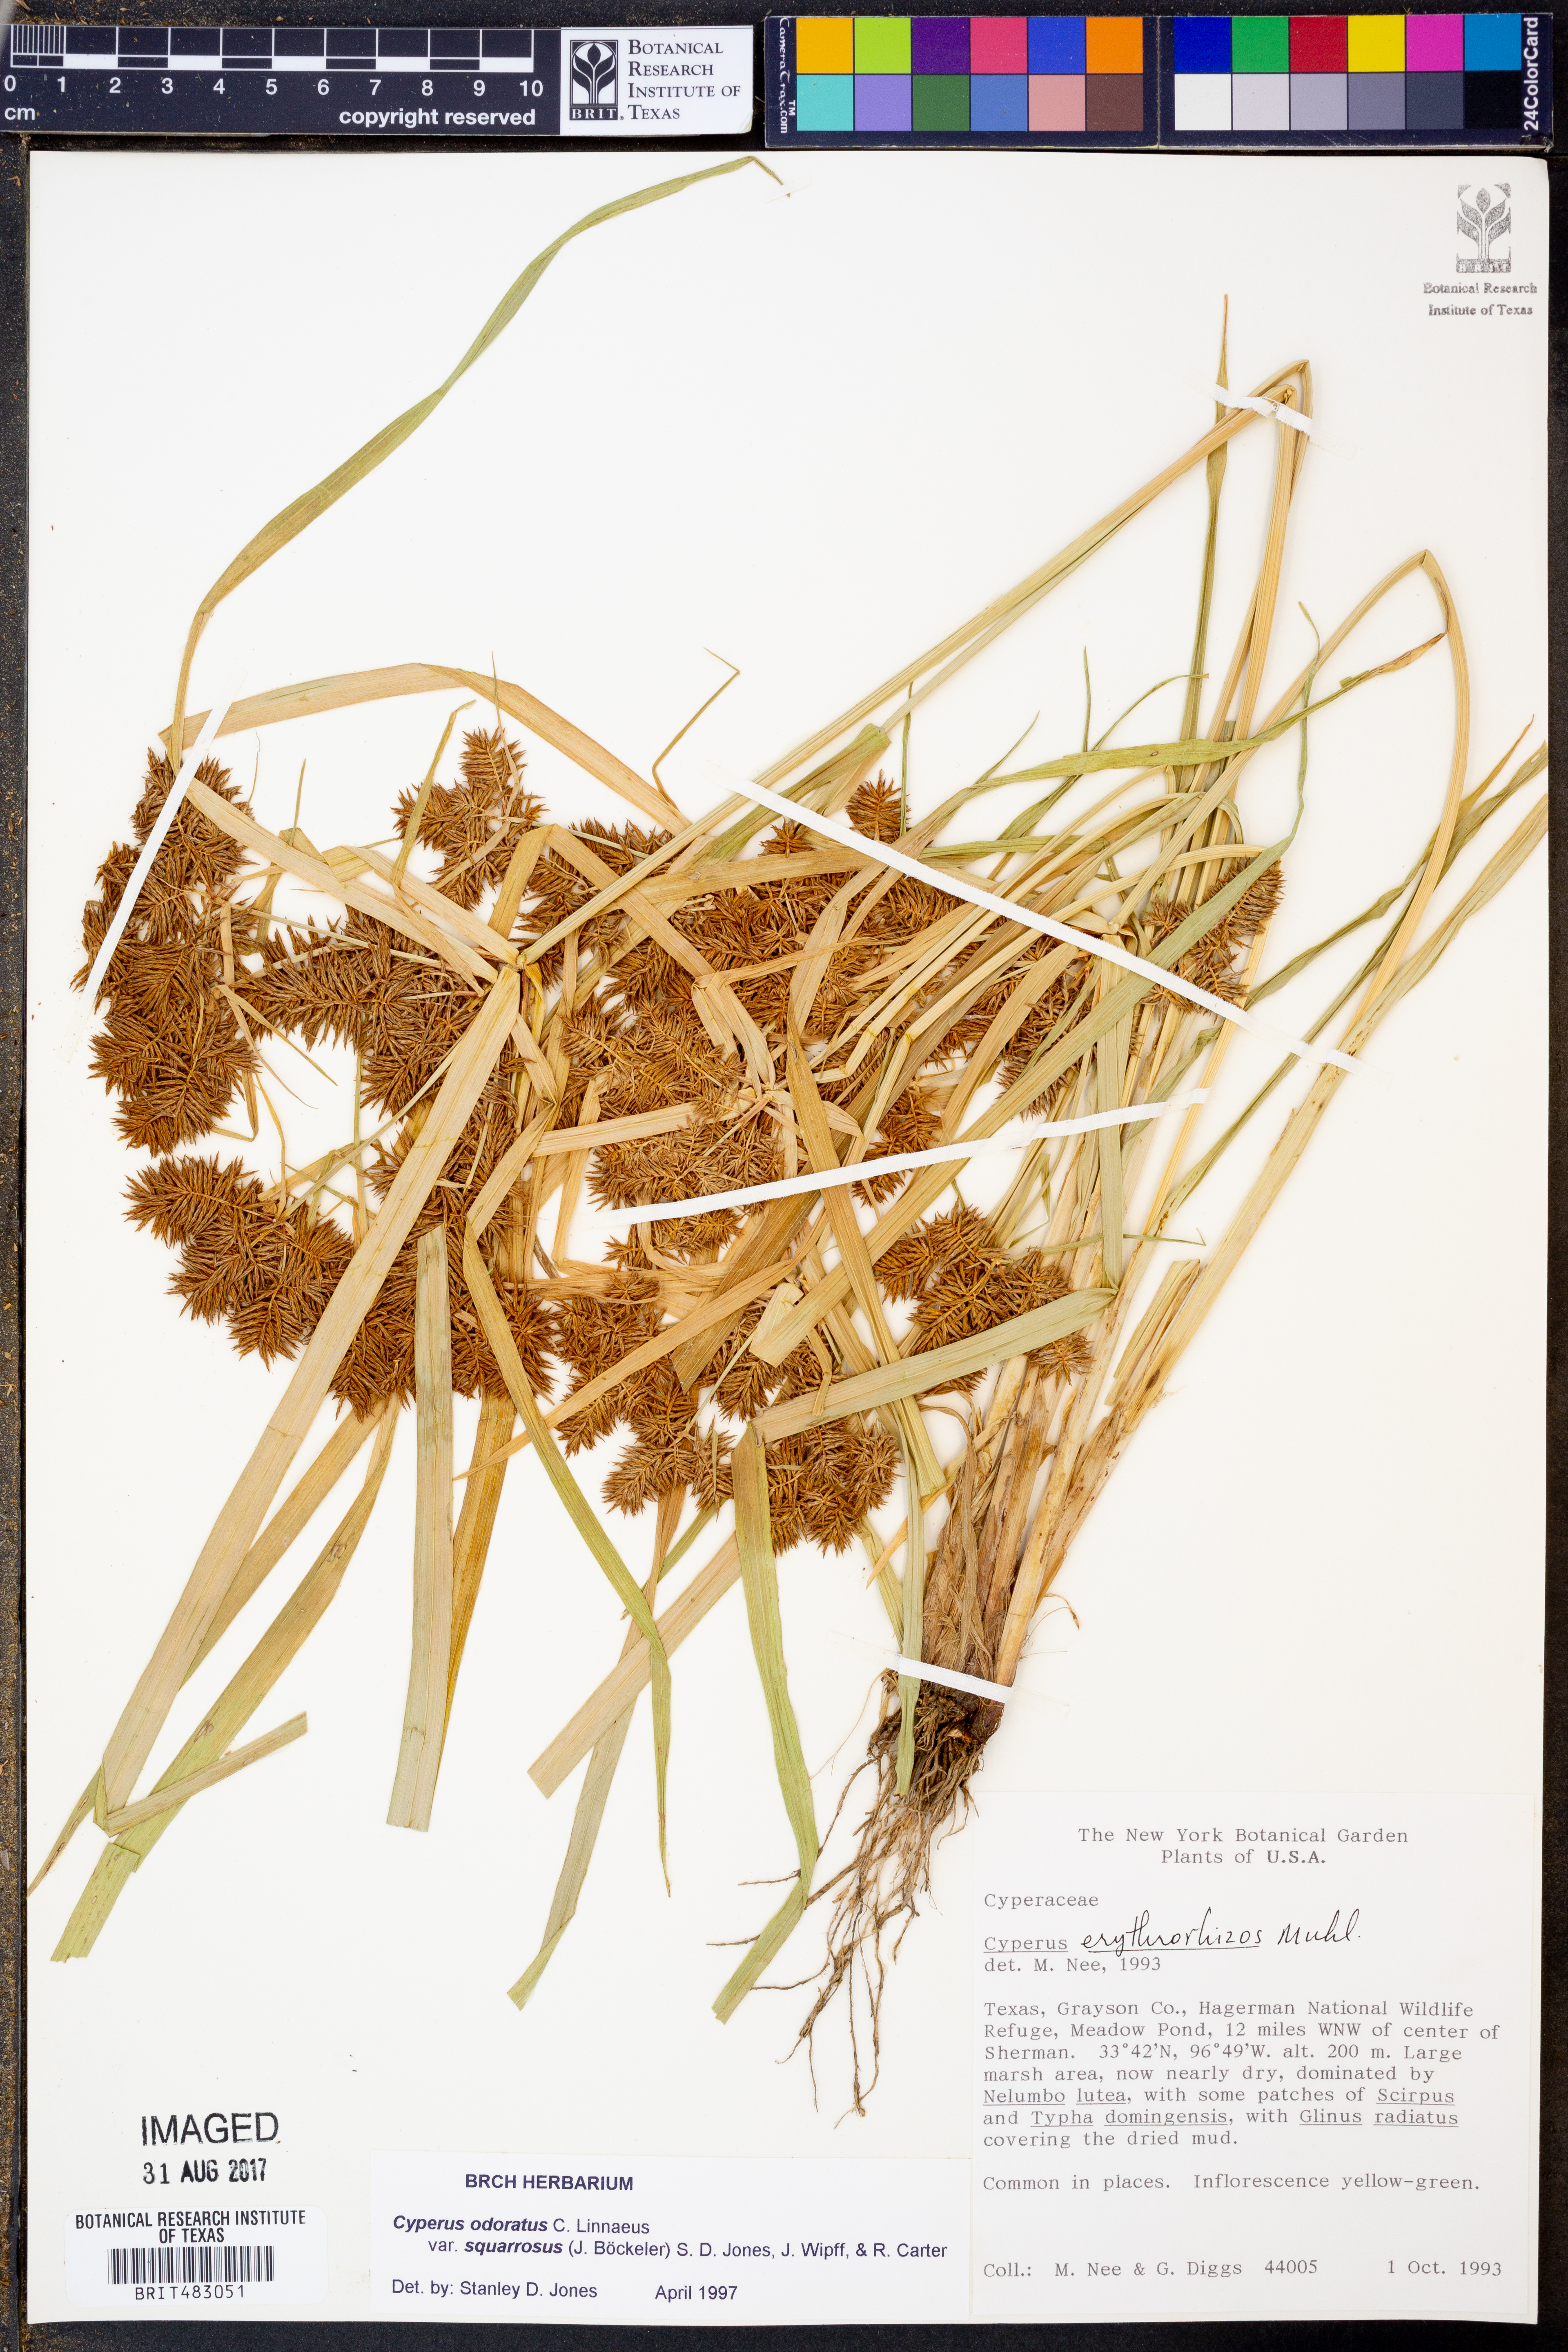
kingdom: Plantae
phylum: Tracheophyta
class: Liliopsida
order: Poales
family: Cyperaceae
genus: Cyperus
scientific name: Cyperus odoratus
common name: Fragrant flatsedge
